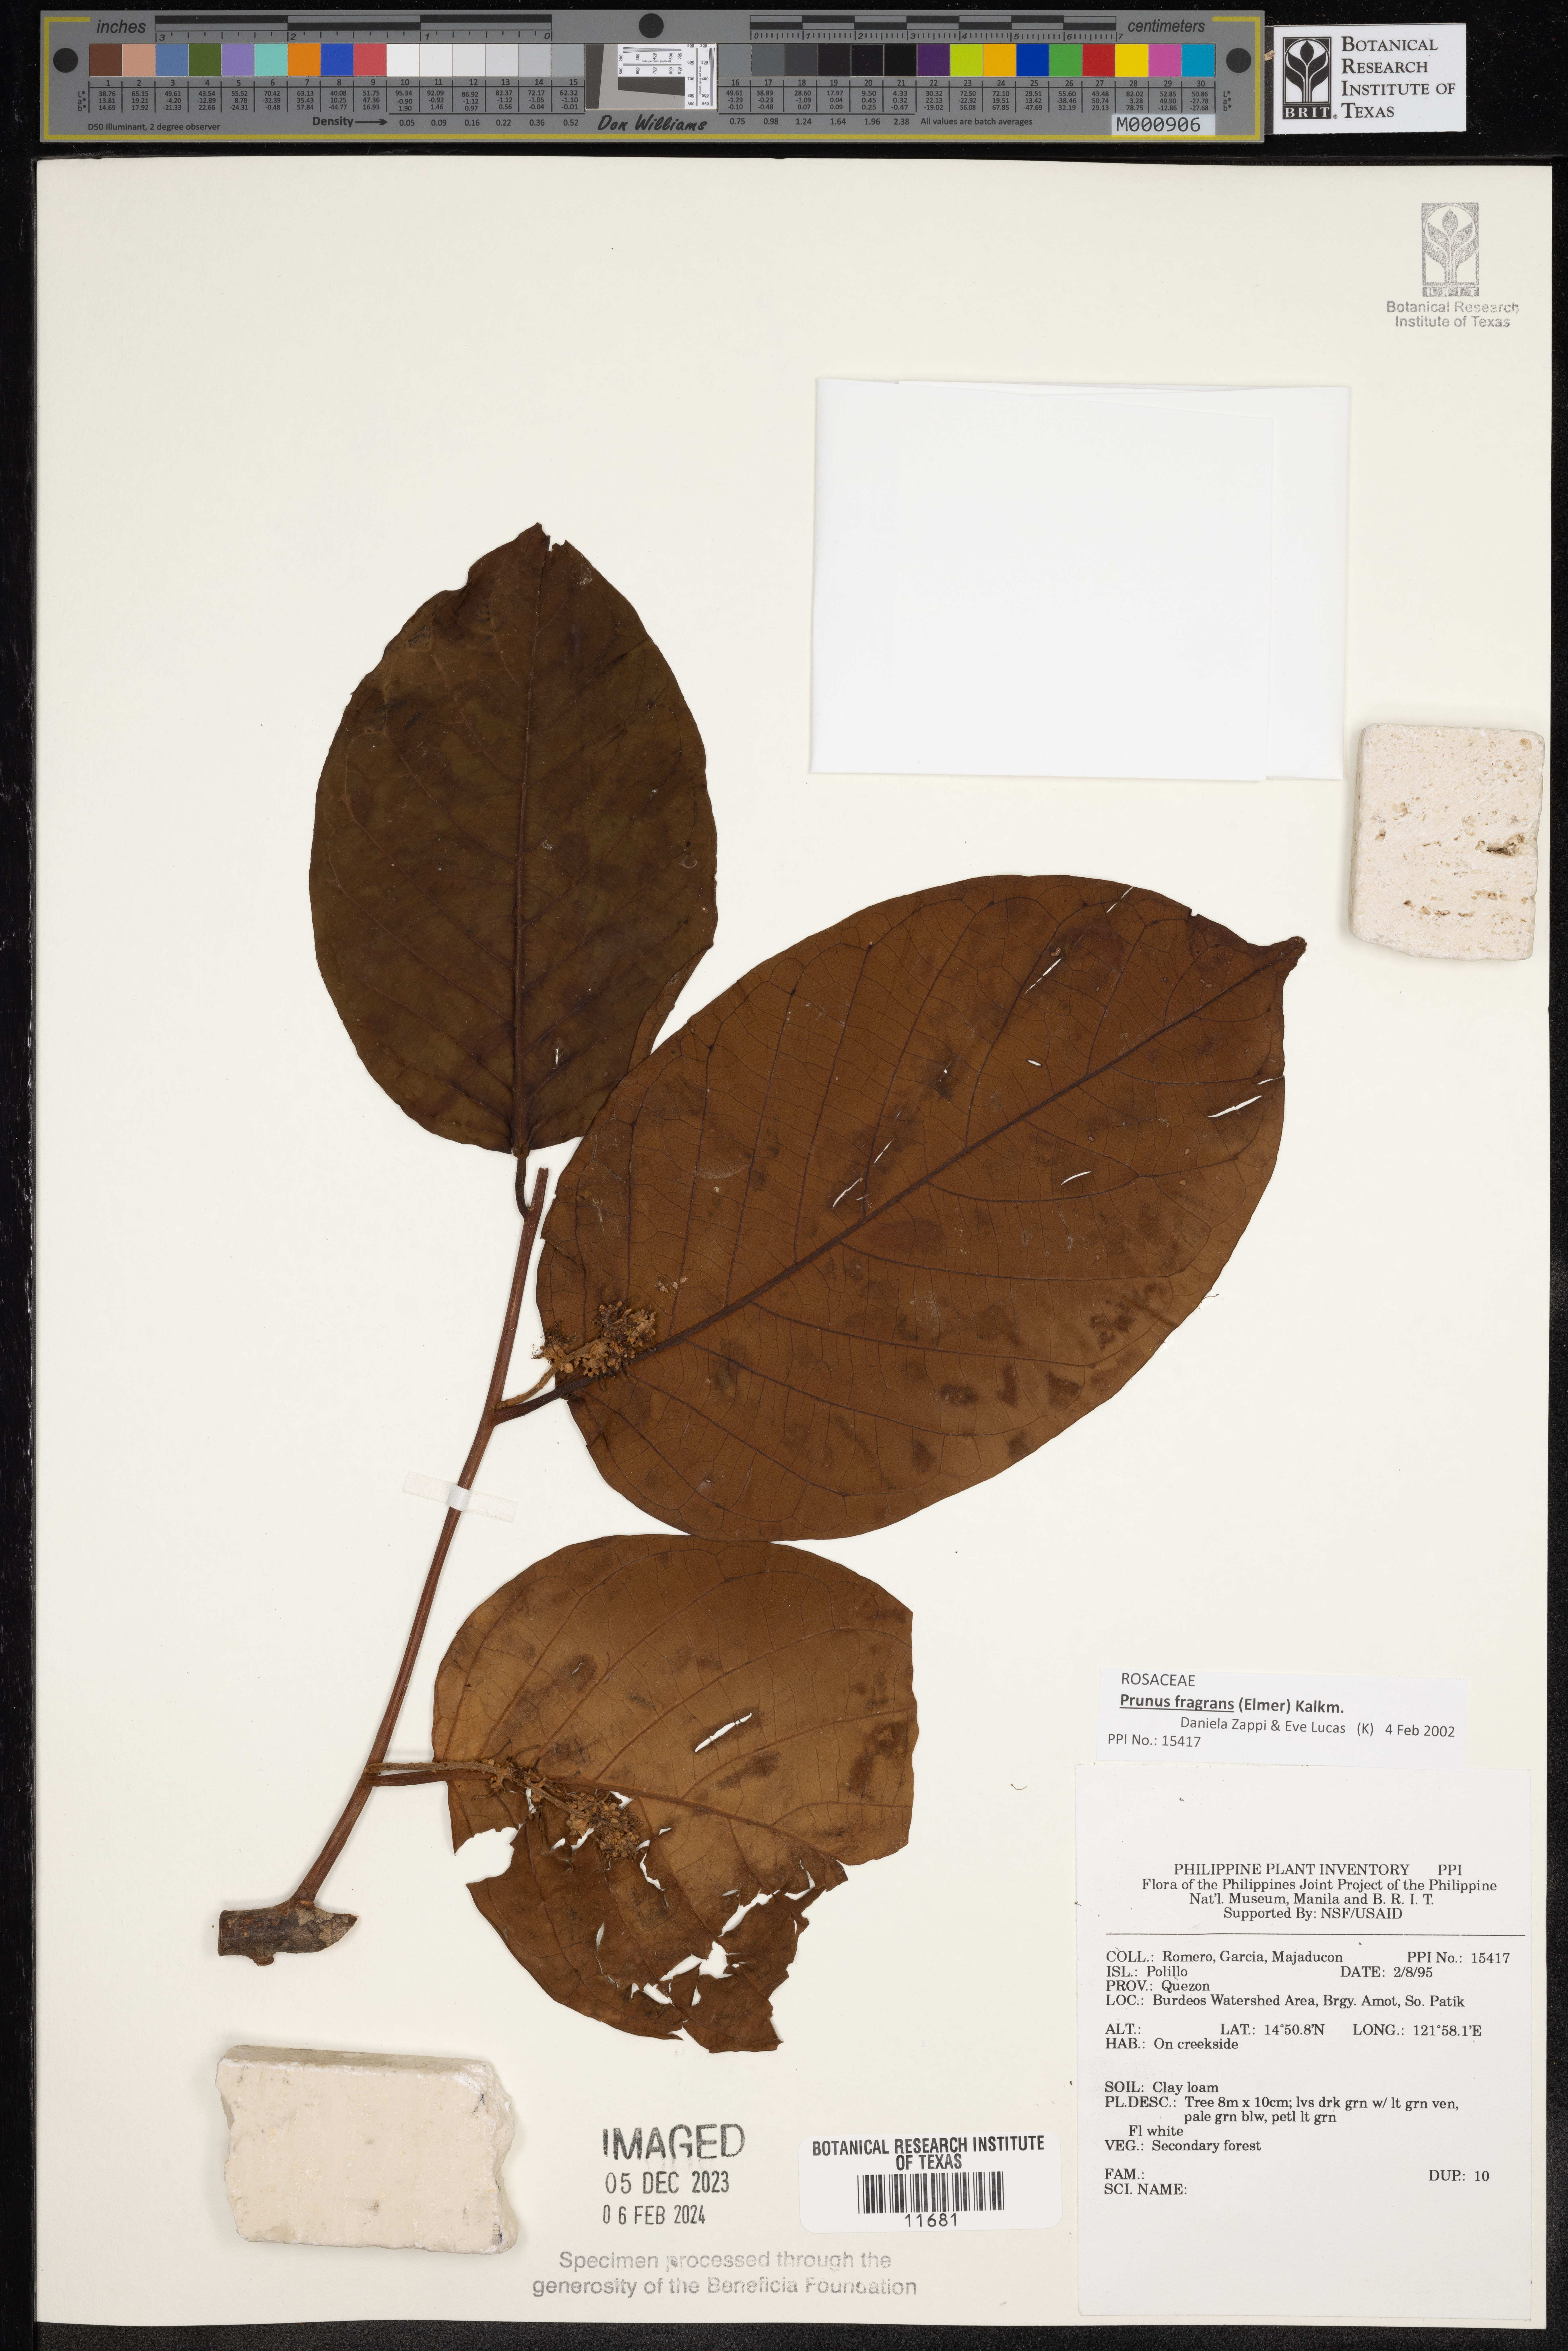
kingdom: Plantae
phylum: Tracheophyta
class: Magnoliopsida
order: Rosales
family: Rosaceae
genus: Prunus
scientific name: Prunus
